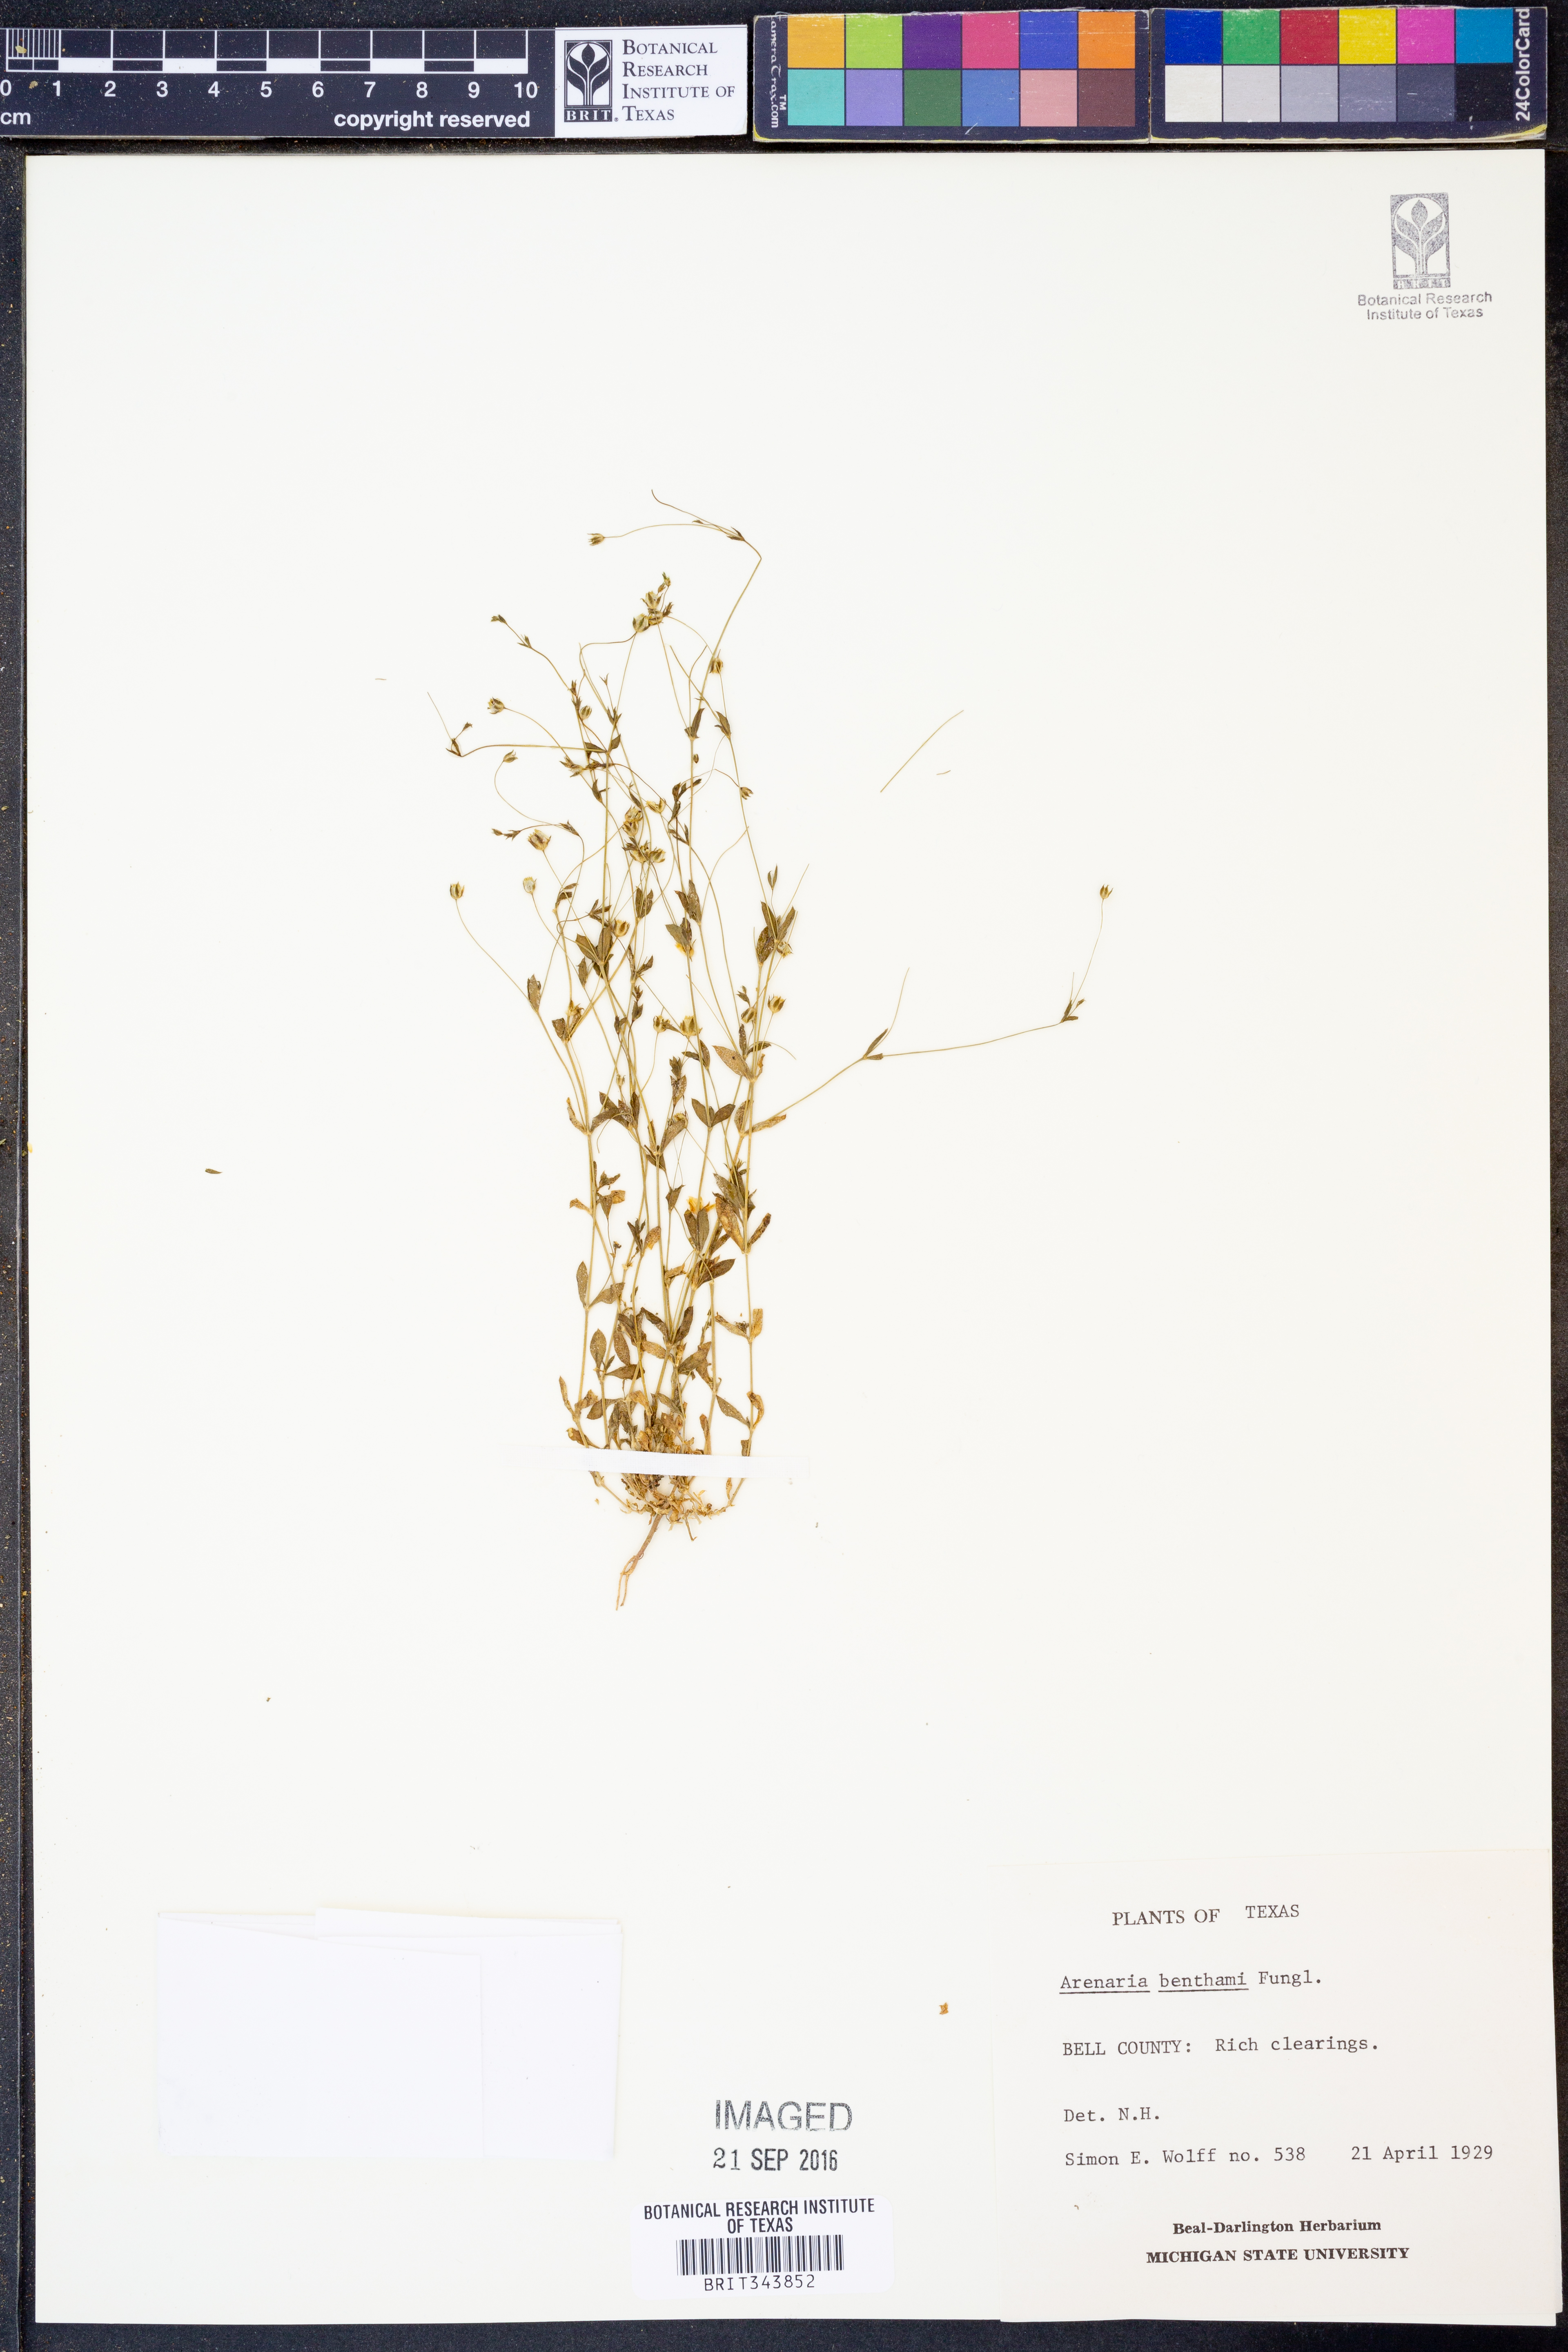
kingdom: Plantae
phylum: Tracheophyta
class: Magnoliopsida
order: Caryophyllales
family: Caryophyllaceae
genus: Arenaria
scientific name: Arenaria benthamii
